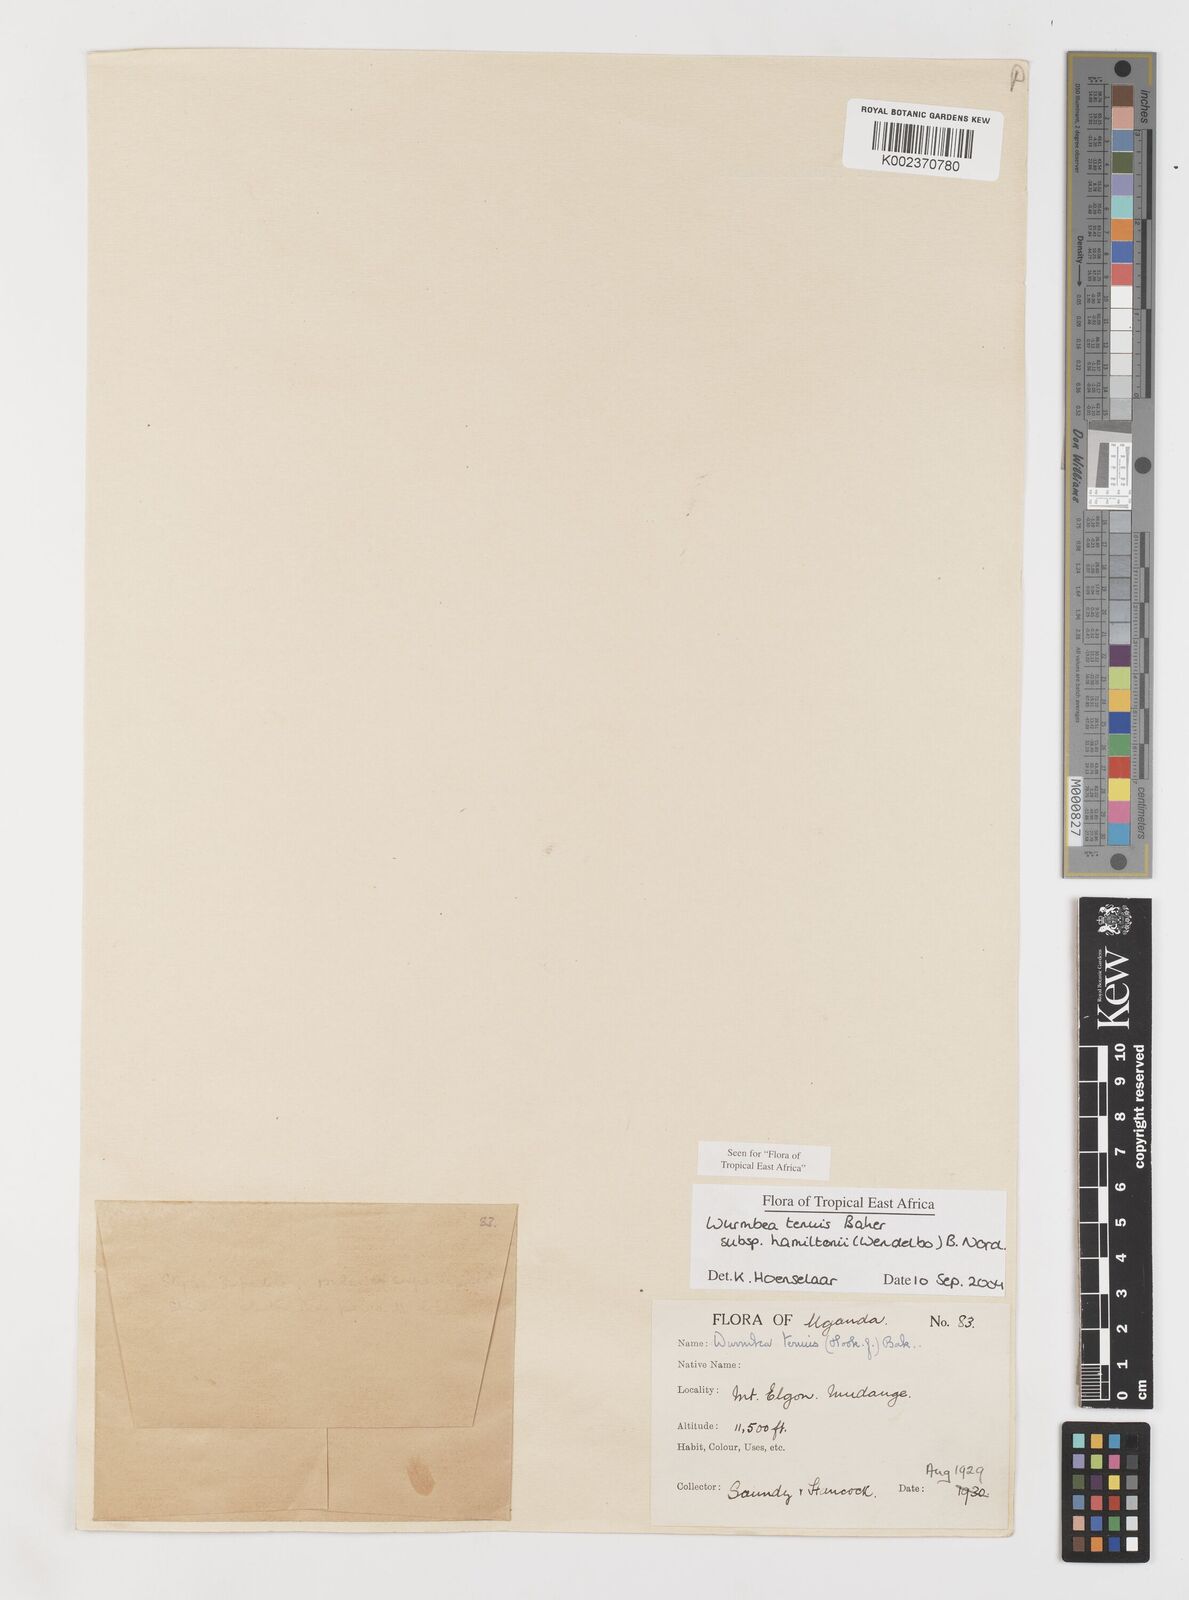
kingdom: Plantae
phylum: Tracheophyta
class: Liliopsida
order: Liliales
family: Colchicaceae
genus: Wurmbea
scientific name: Wurmbea tenuis
